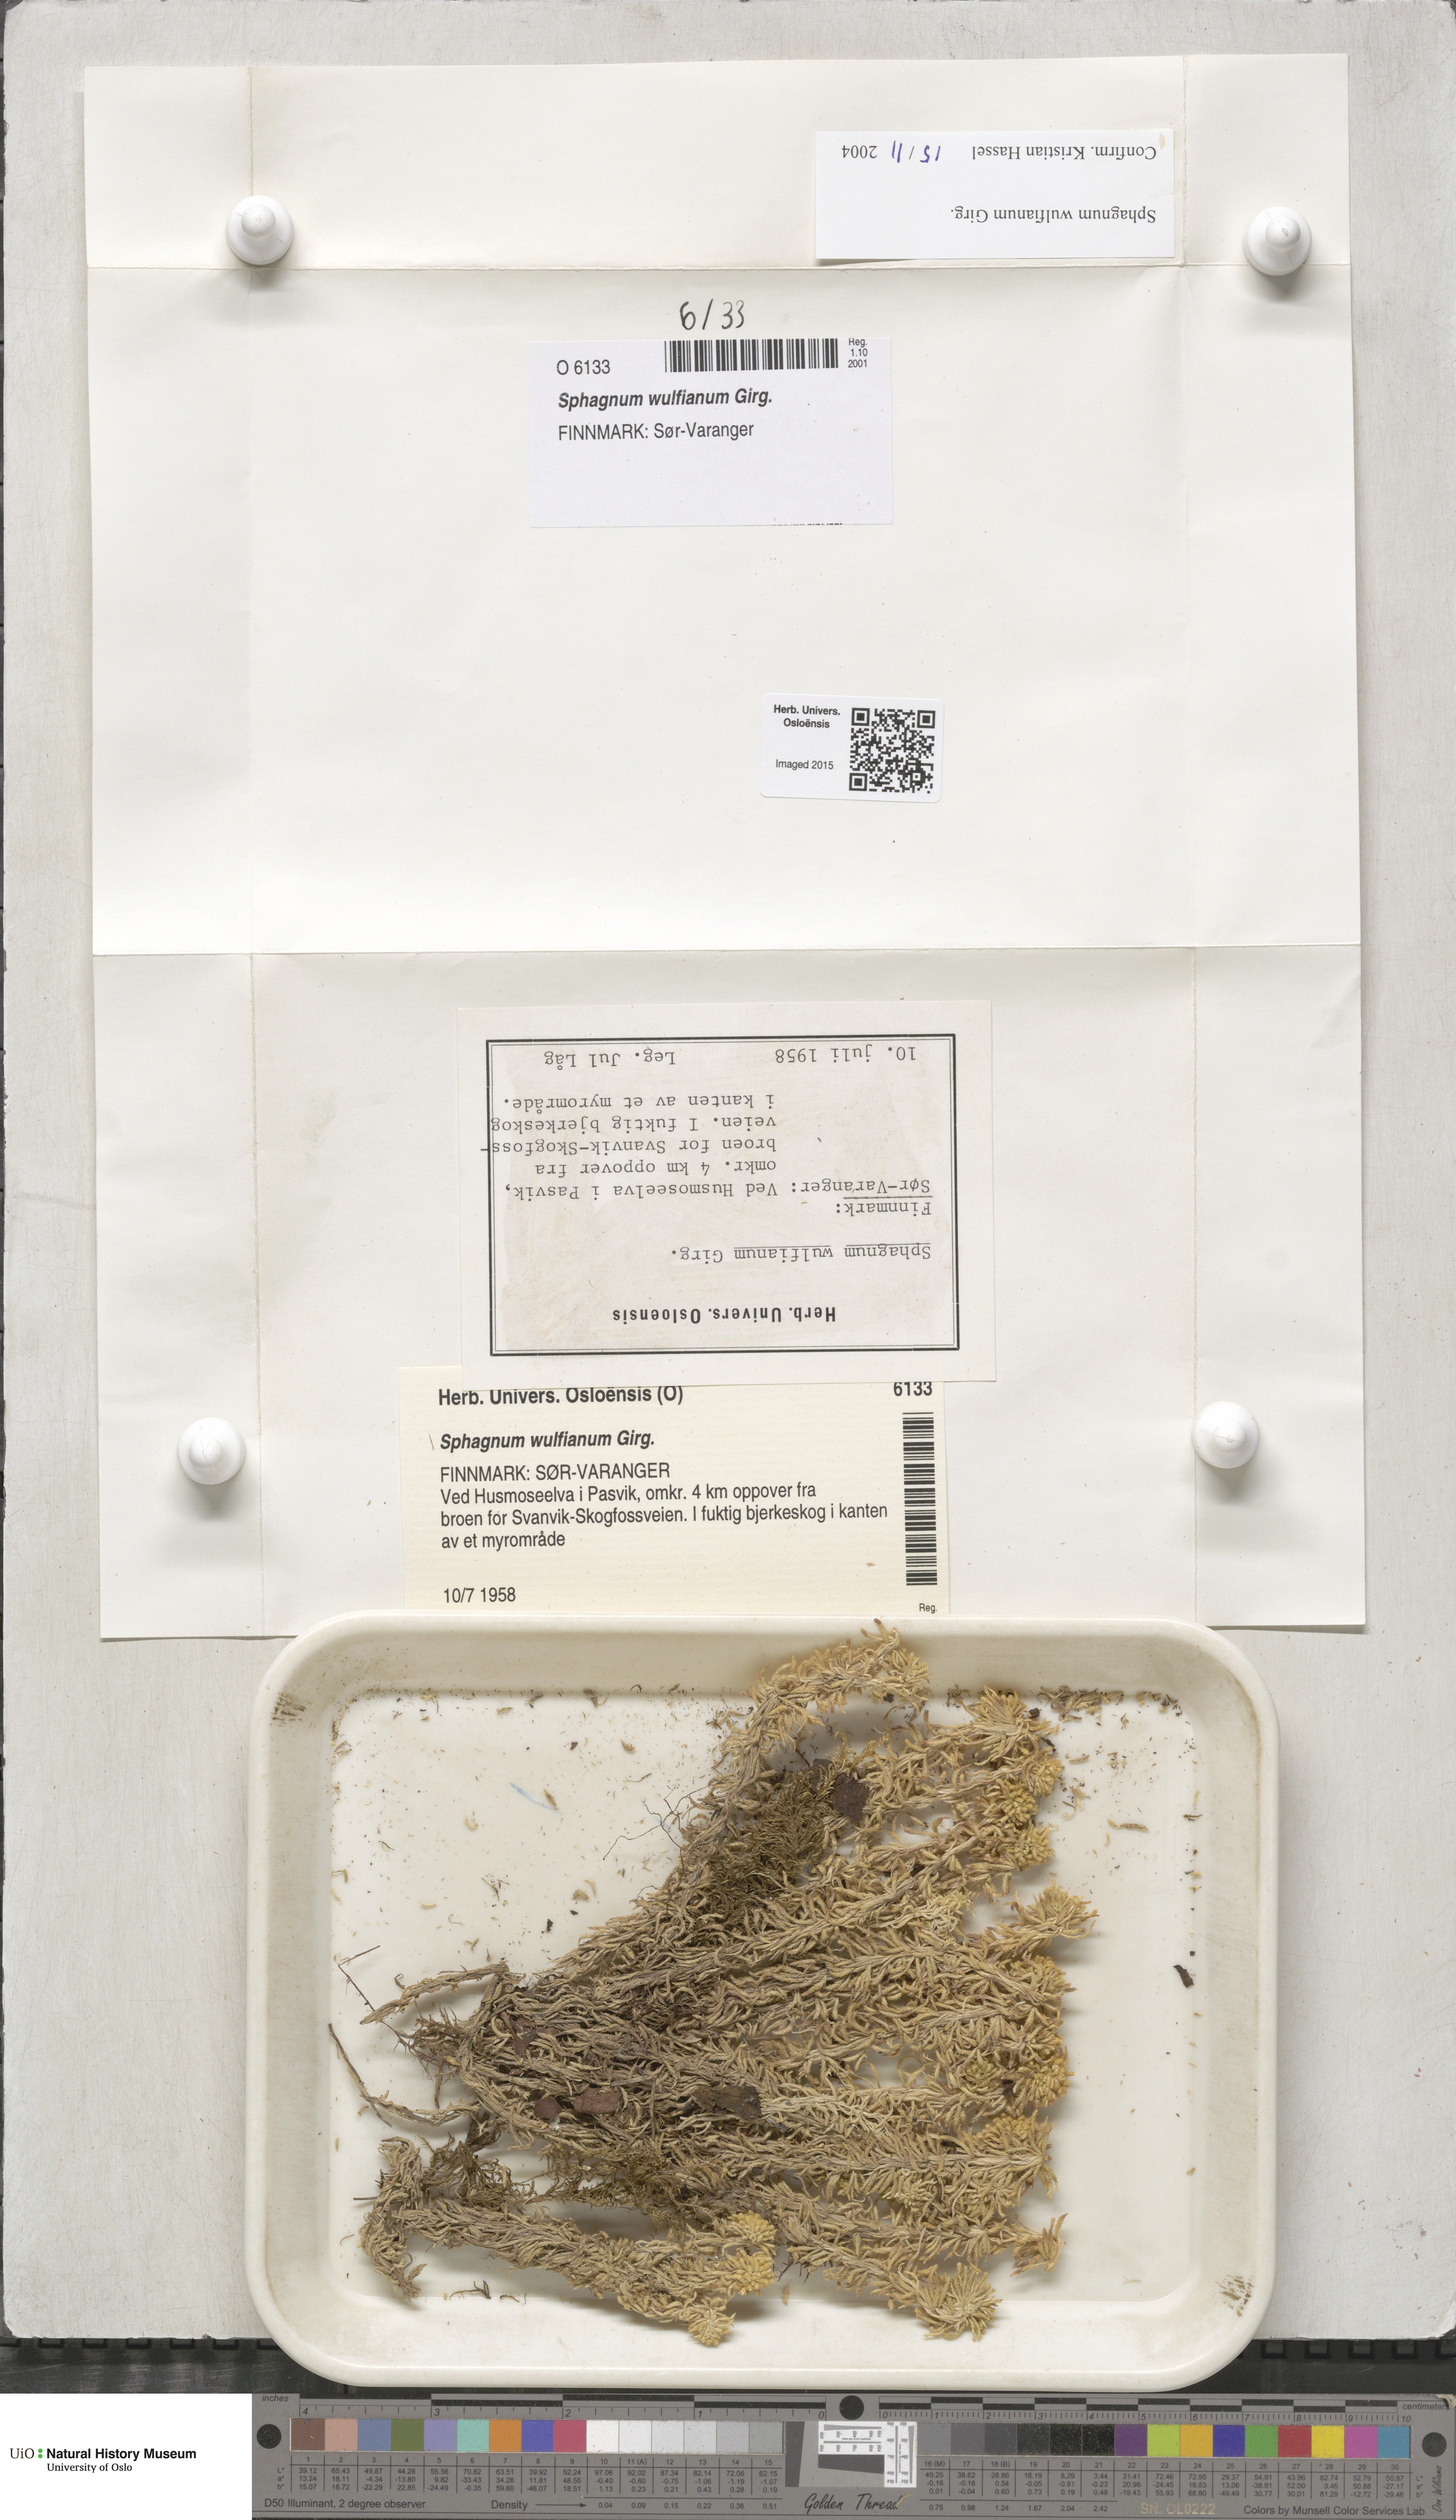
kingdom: Plantae
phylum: Bryophyta
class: Sphagnopsida
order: Sphagnales
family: Sphagnaceae
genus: Sphagnum
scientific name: Sphagnum wulfianum
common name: Wulf's peat moss
